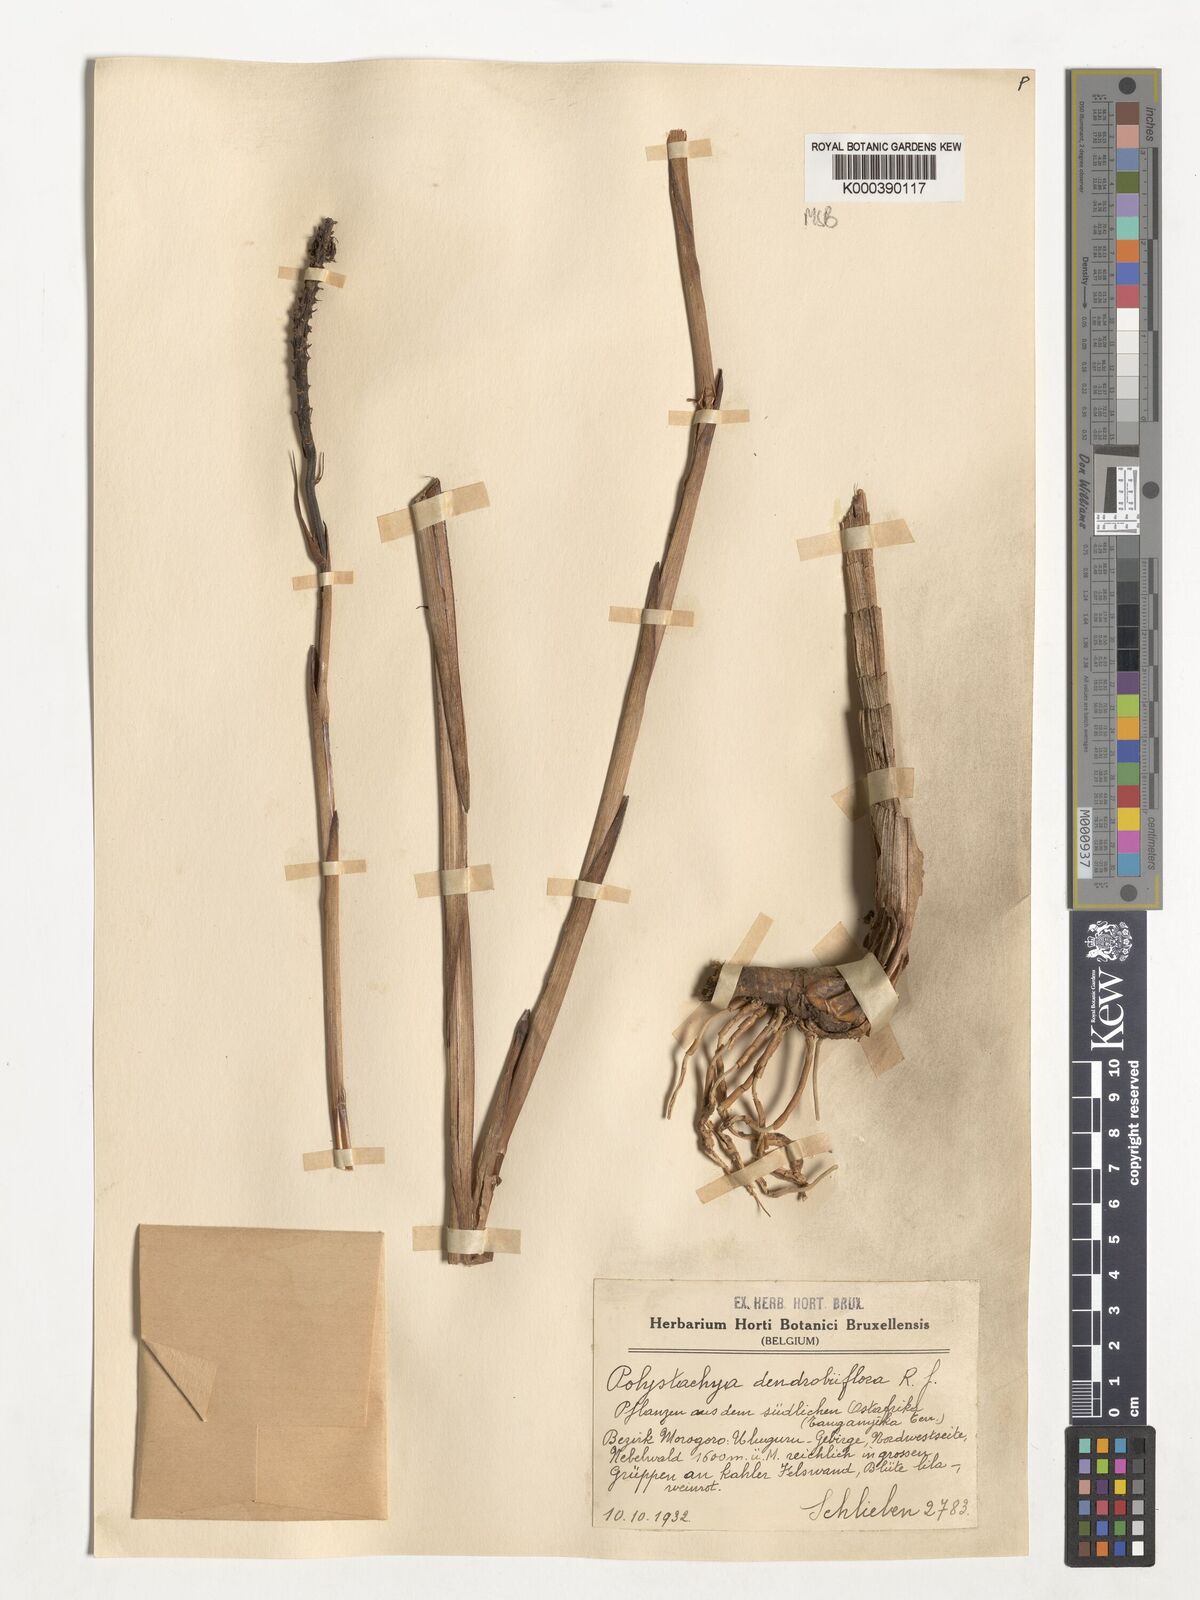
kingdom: Plantae
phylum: Tracheophyta
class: Liliopsida
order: Asparagales
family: Orchidaceae
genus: Polystachya
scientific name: Polystachya longiscapa
